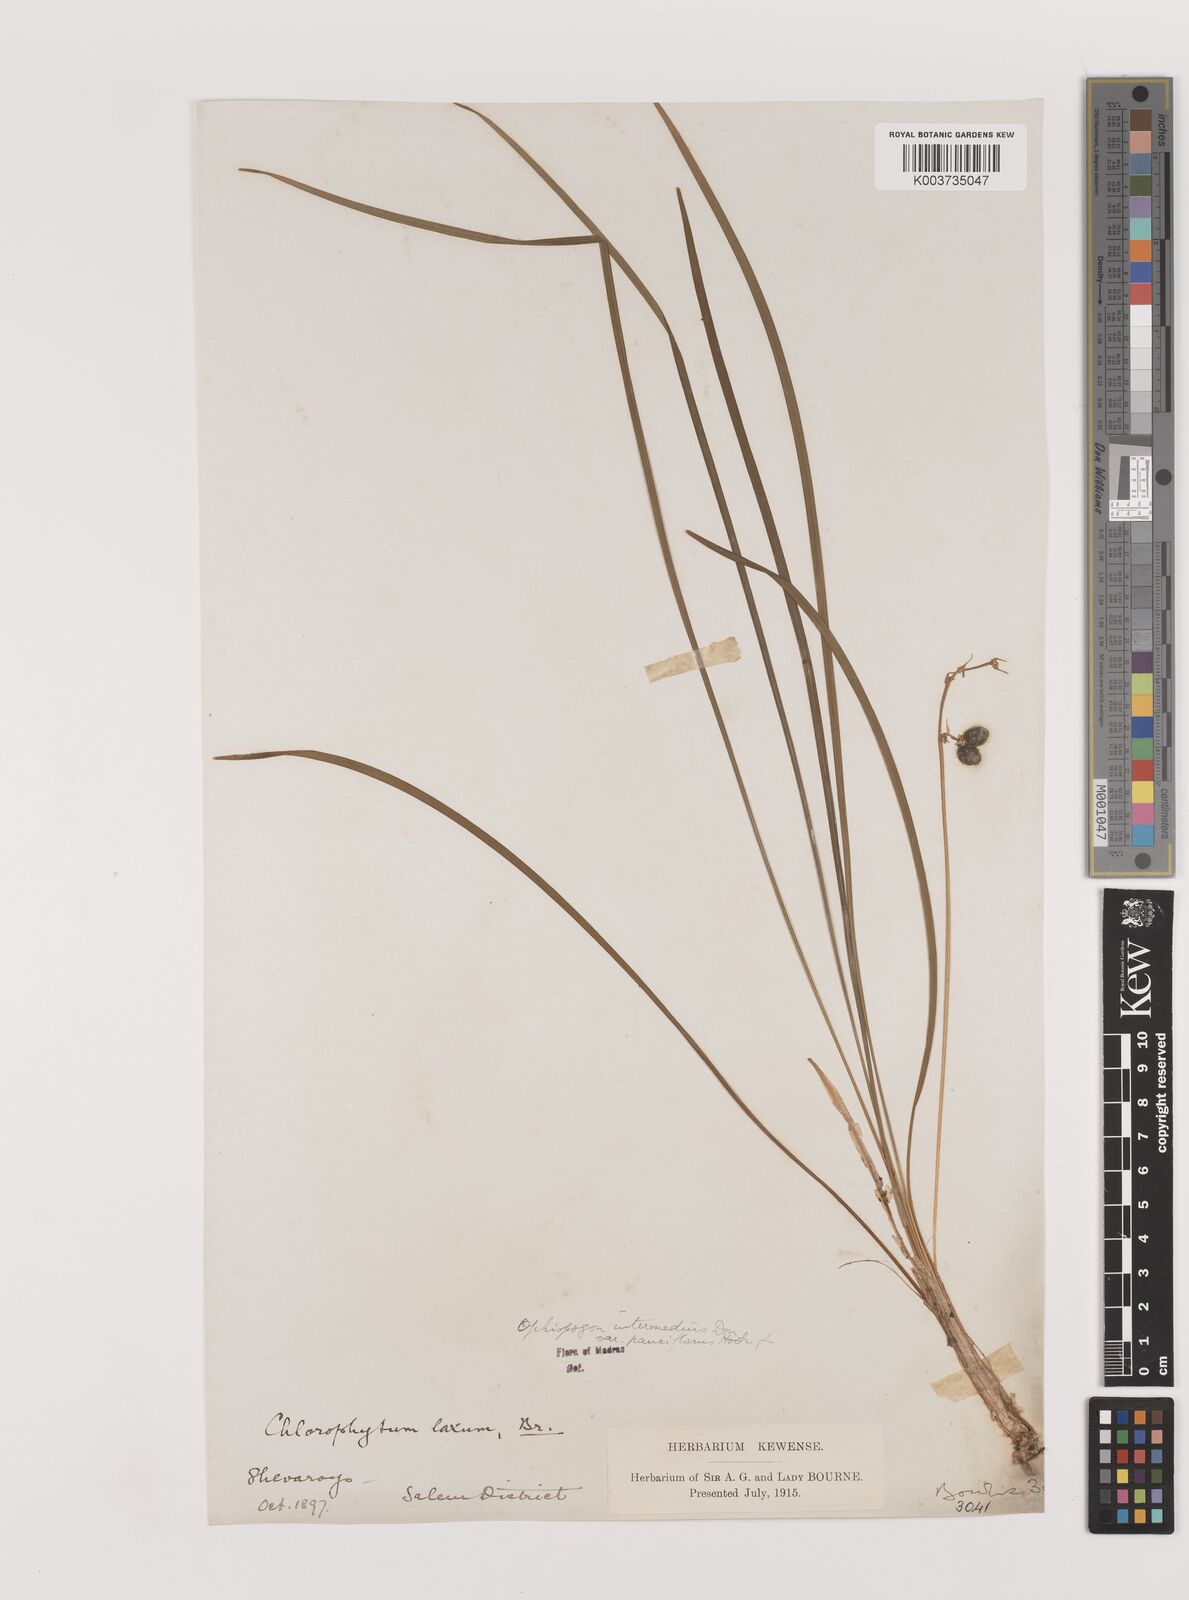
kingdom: Plantae
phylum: Tracheophyta
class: Liliopsida
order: Asparagales
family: Asparagaceae
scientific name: Asparagaceae
